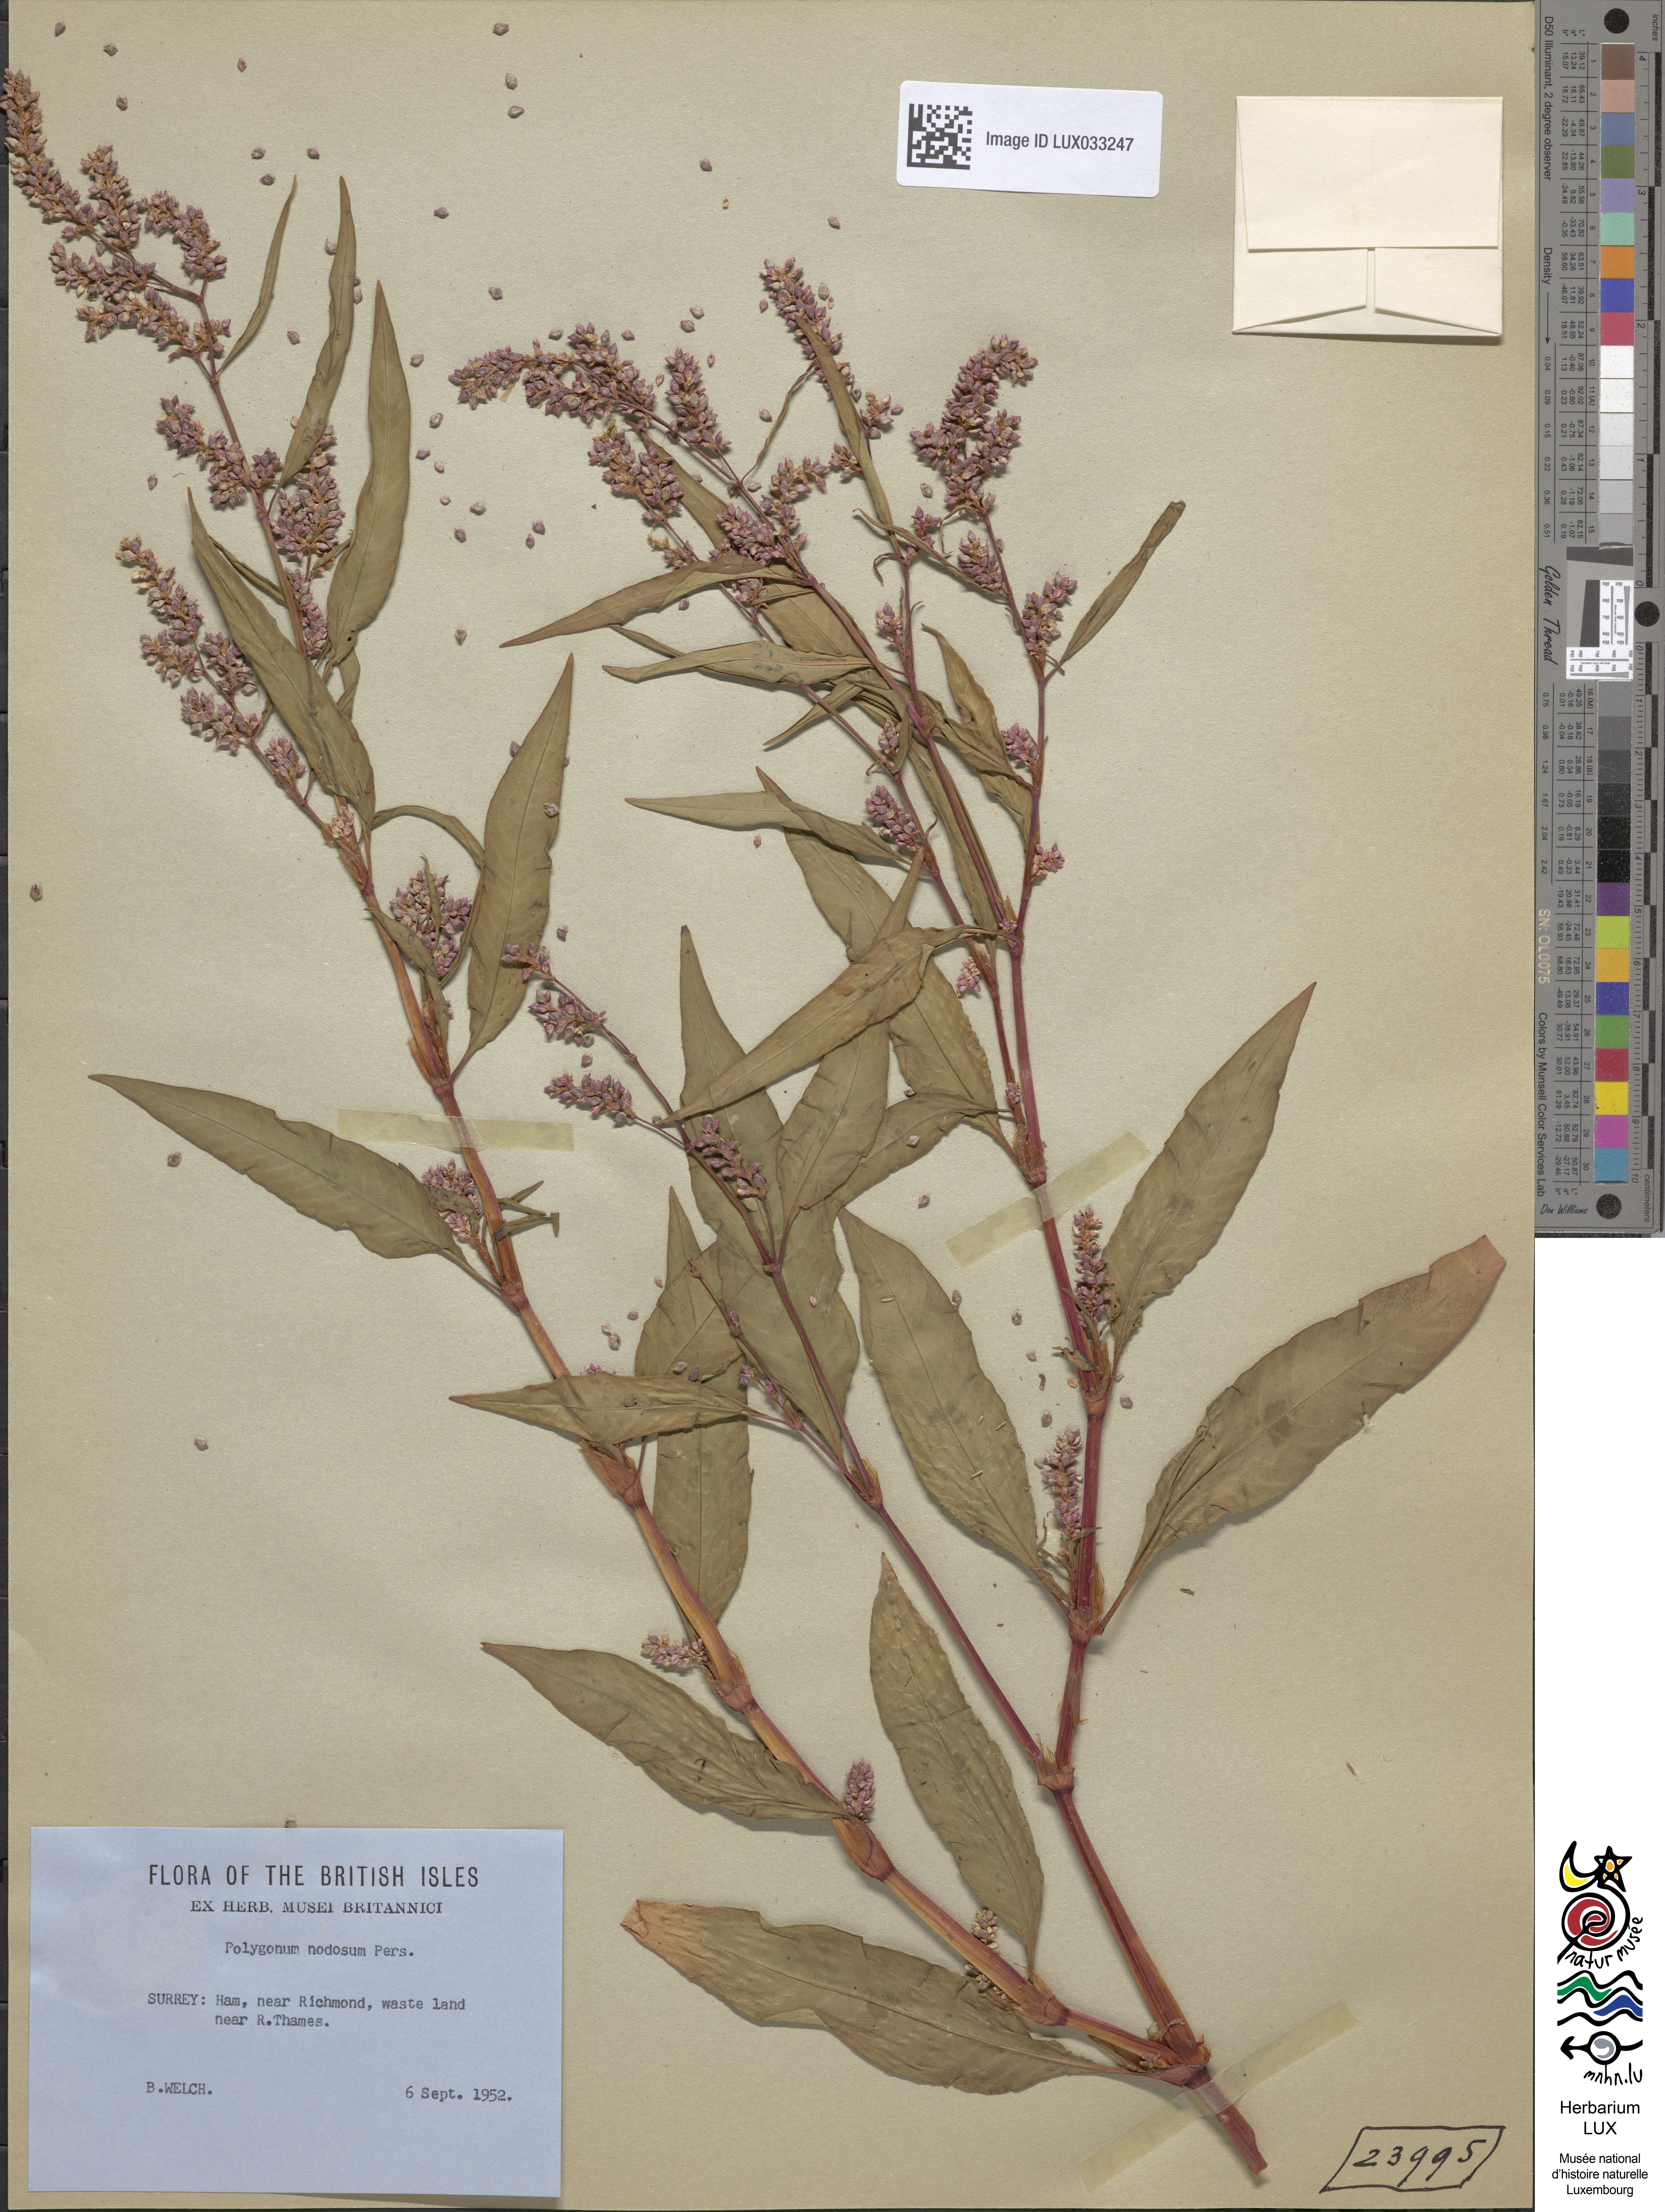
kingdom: Plantae
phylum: Tracheophyta
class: Magnoliopsida
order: Caryophyllales
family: Polygonaceae
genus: Persicaria
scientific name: Persicaria lapathifolia
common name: Curlytop knotweed
